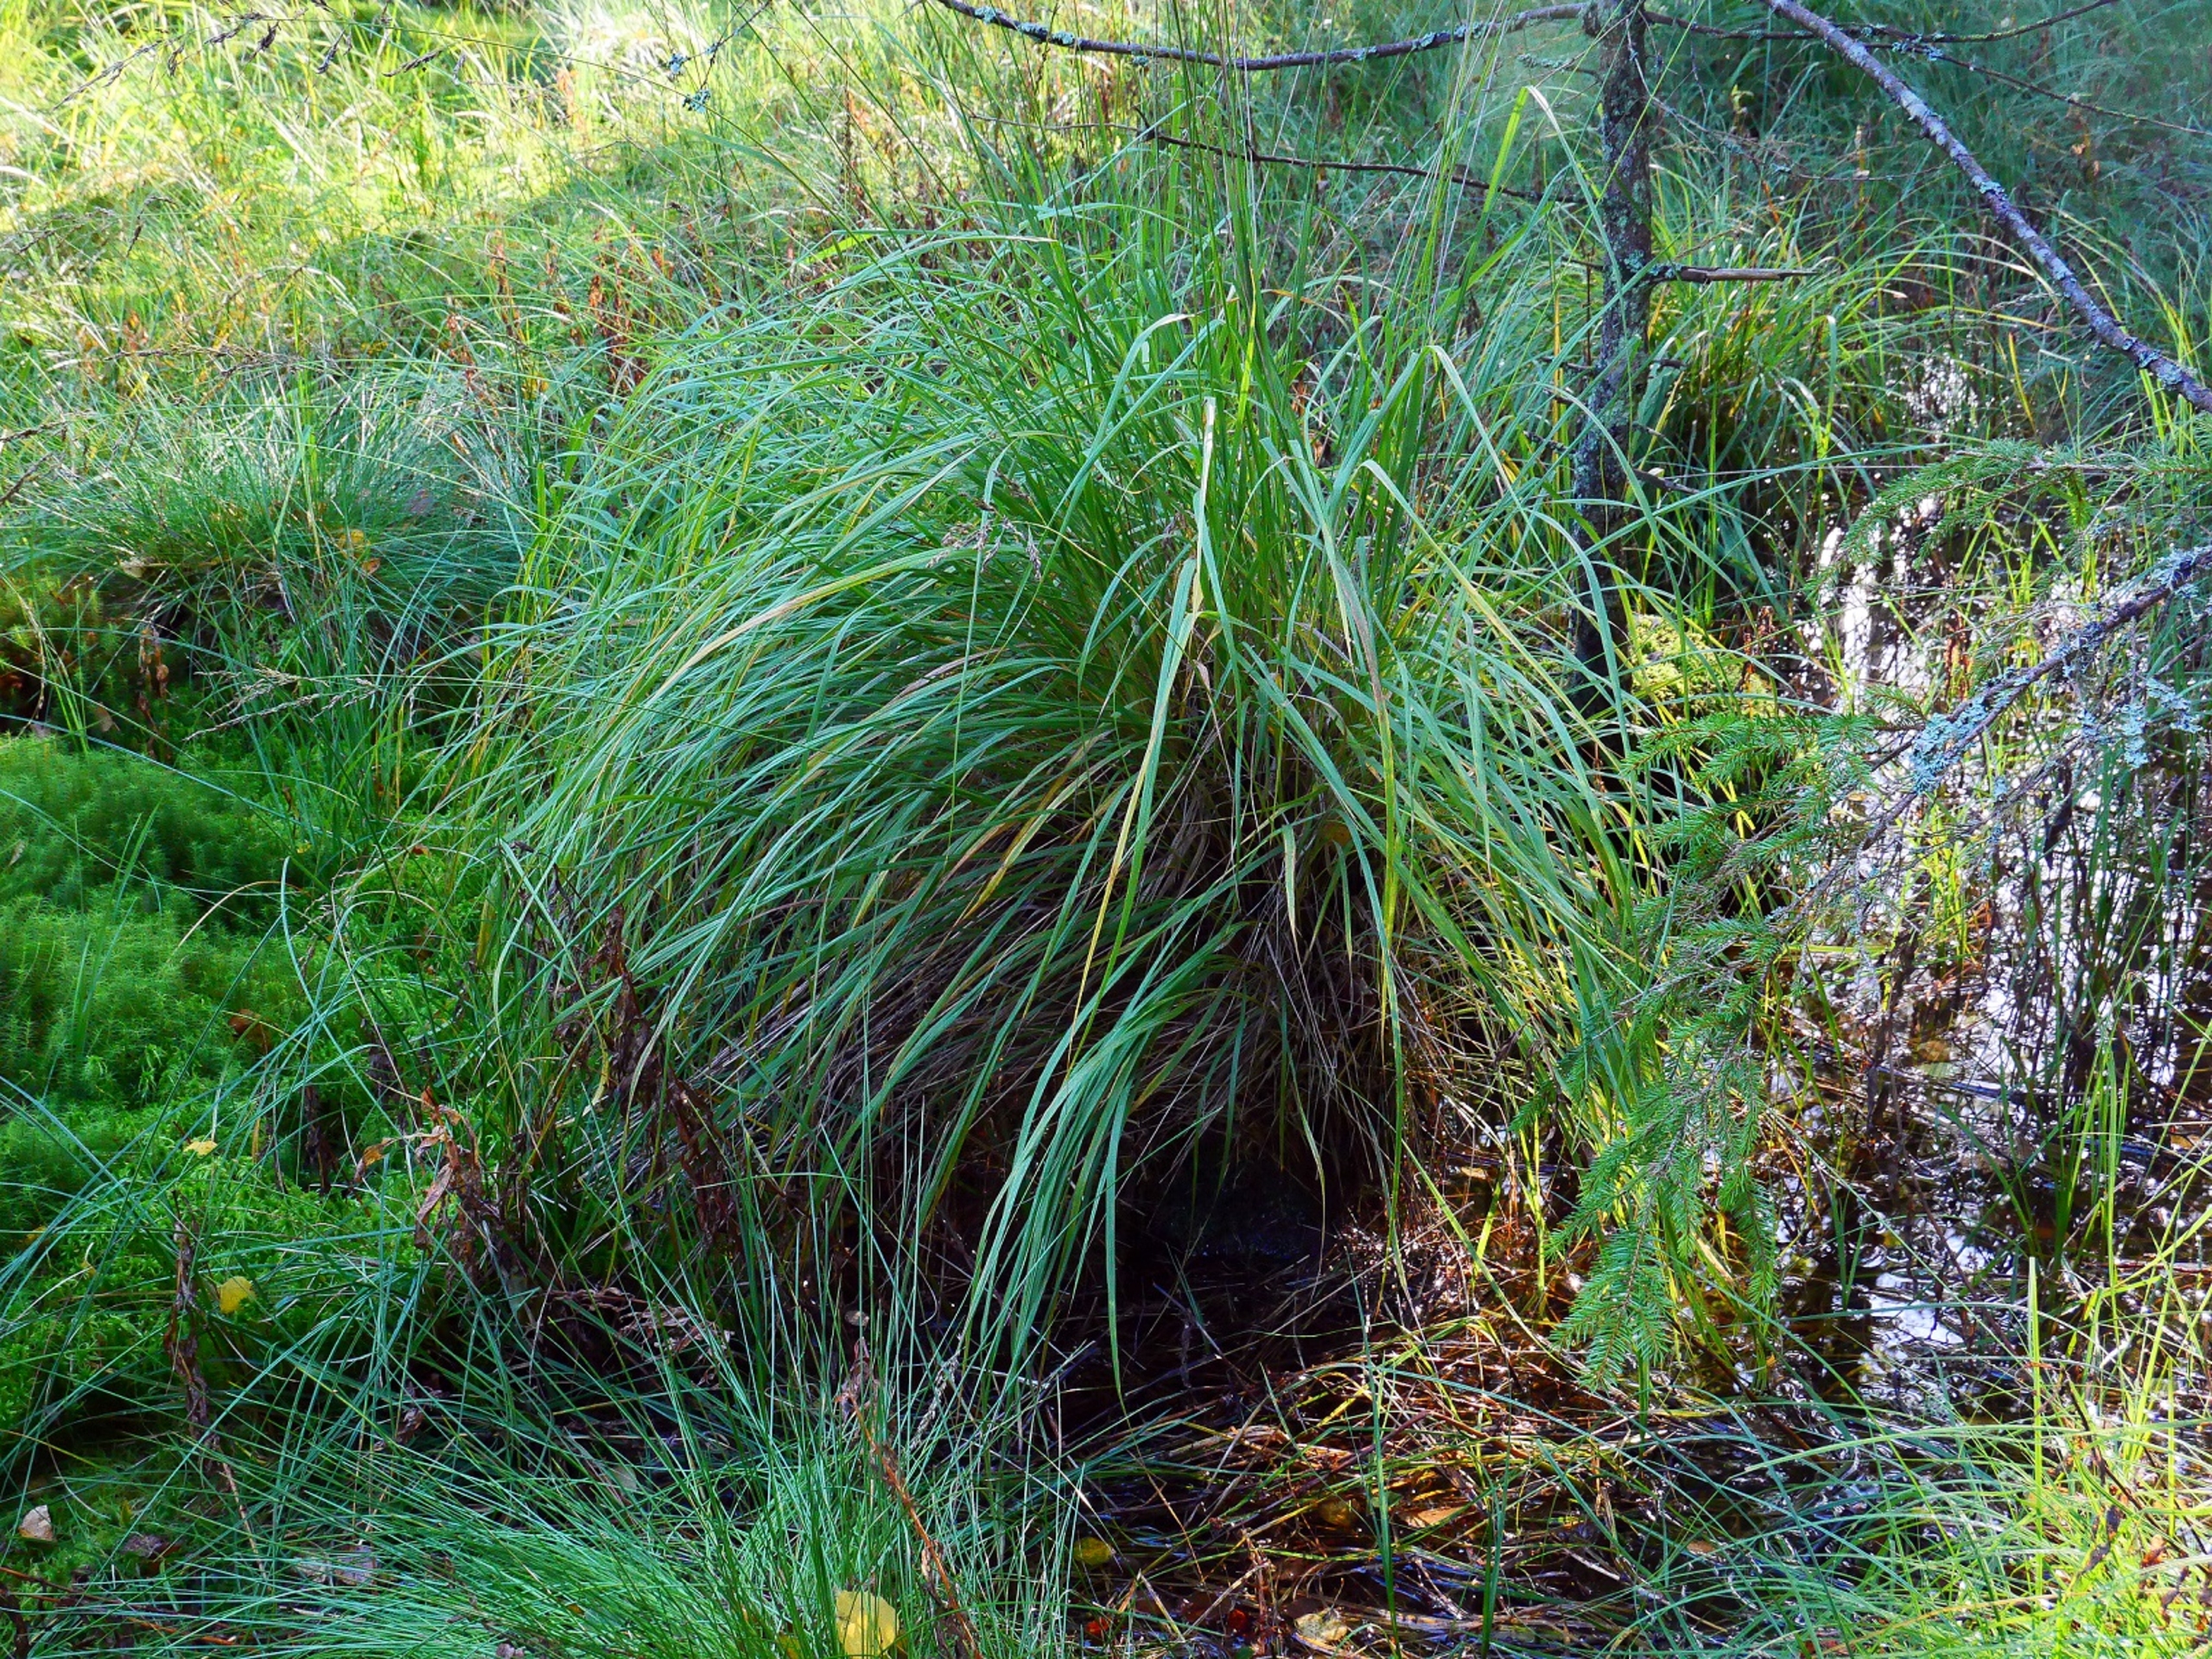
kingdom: Plantae
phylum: Marchantiophyta
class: Jungermanniopsida
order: Pallaviciniales
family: Pallaviciniaceae
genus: Pallavicinia
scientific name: Pallavicinia lyellii
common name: Almindelig strengløv
